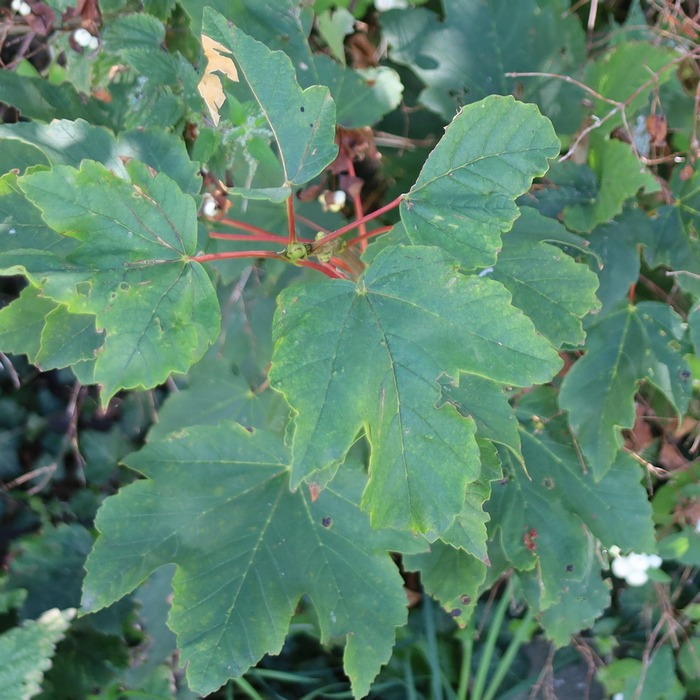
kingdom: Plantae
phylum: Tracheophyta
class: Magnoliopsida
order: Sapindales
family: Sapindaceae
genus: Acer
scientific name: Acer pseudoplatanus
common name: Ahorn
